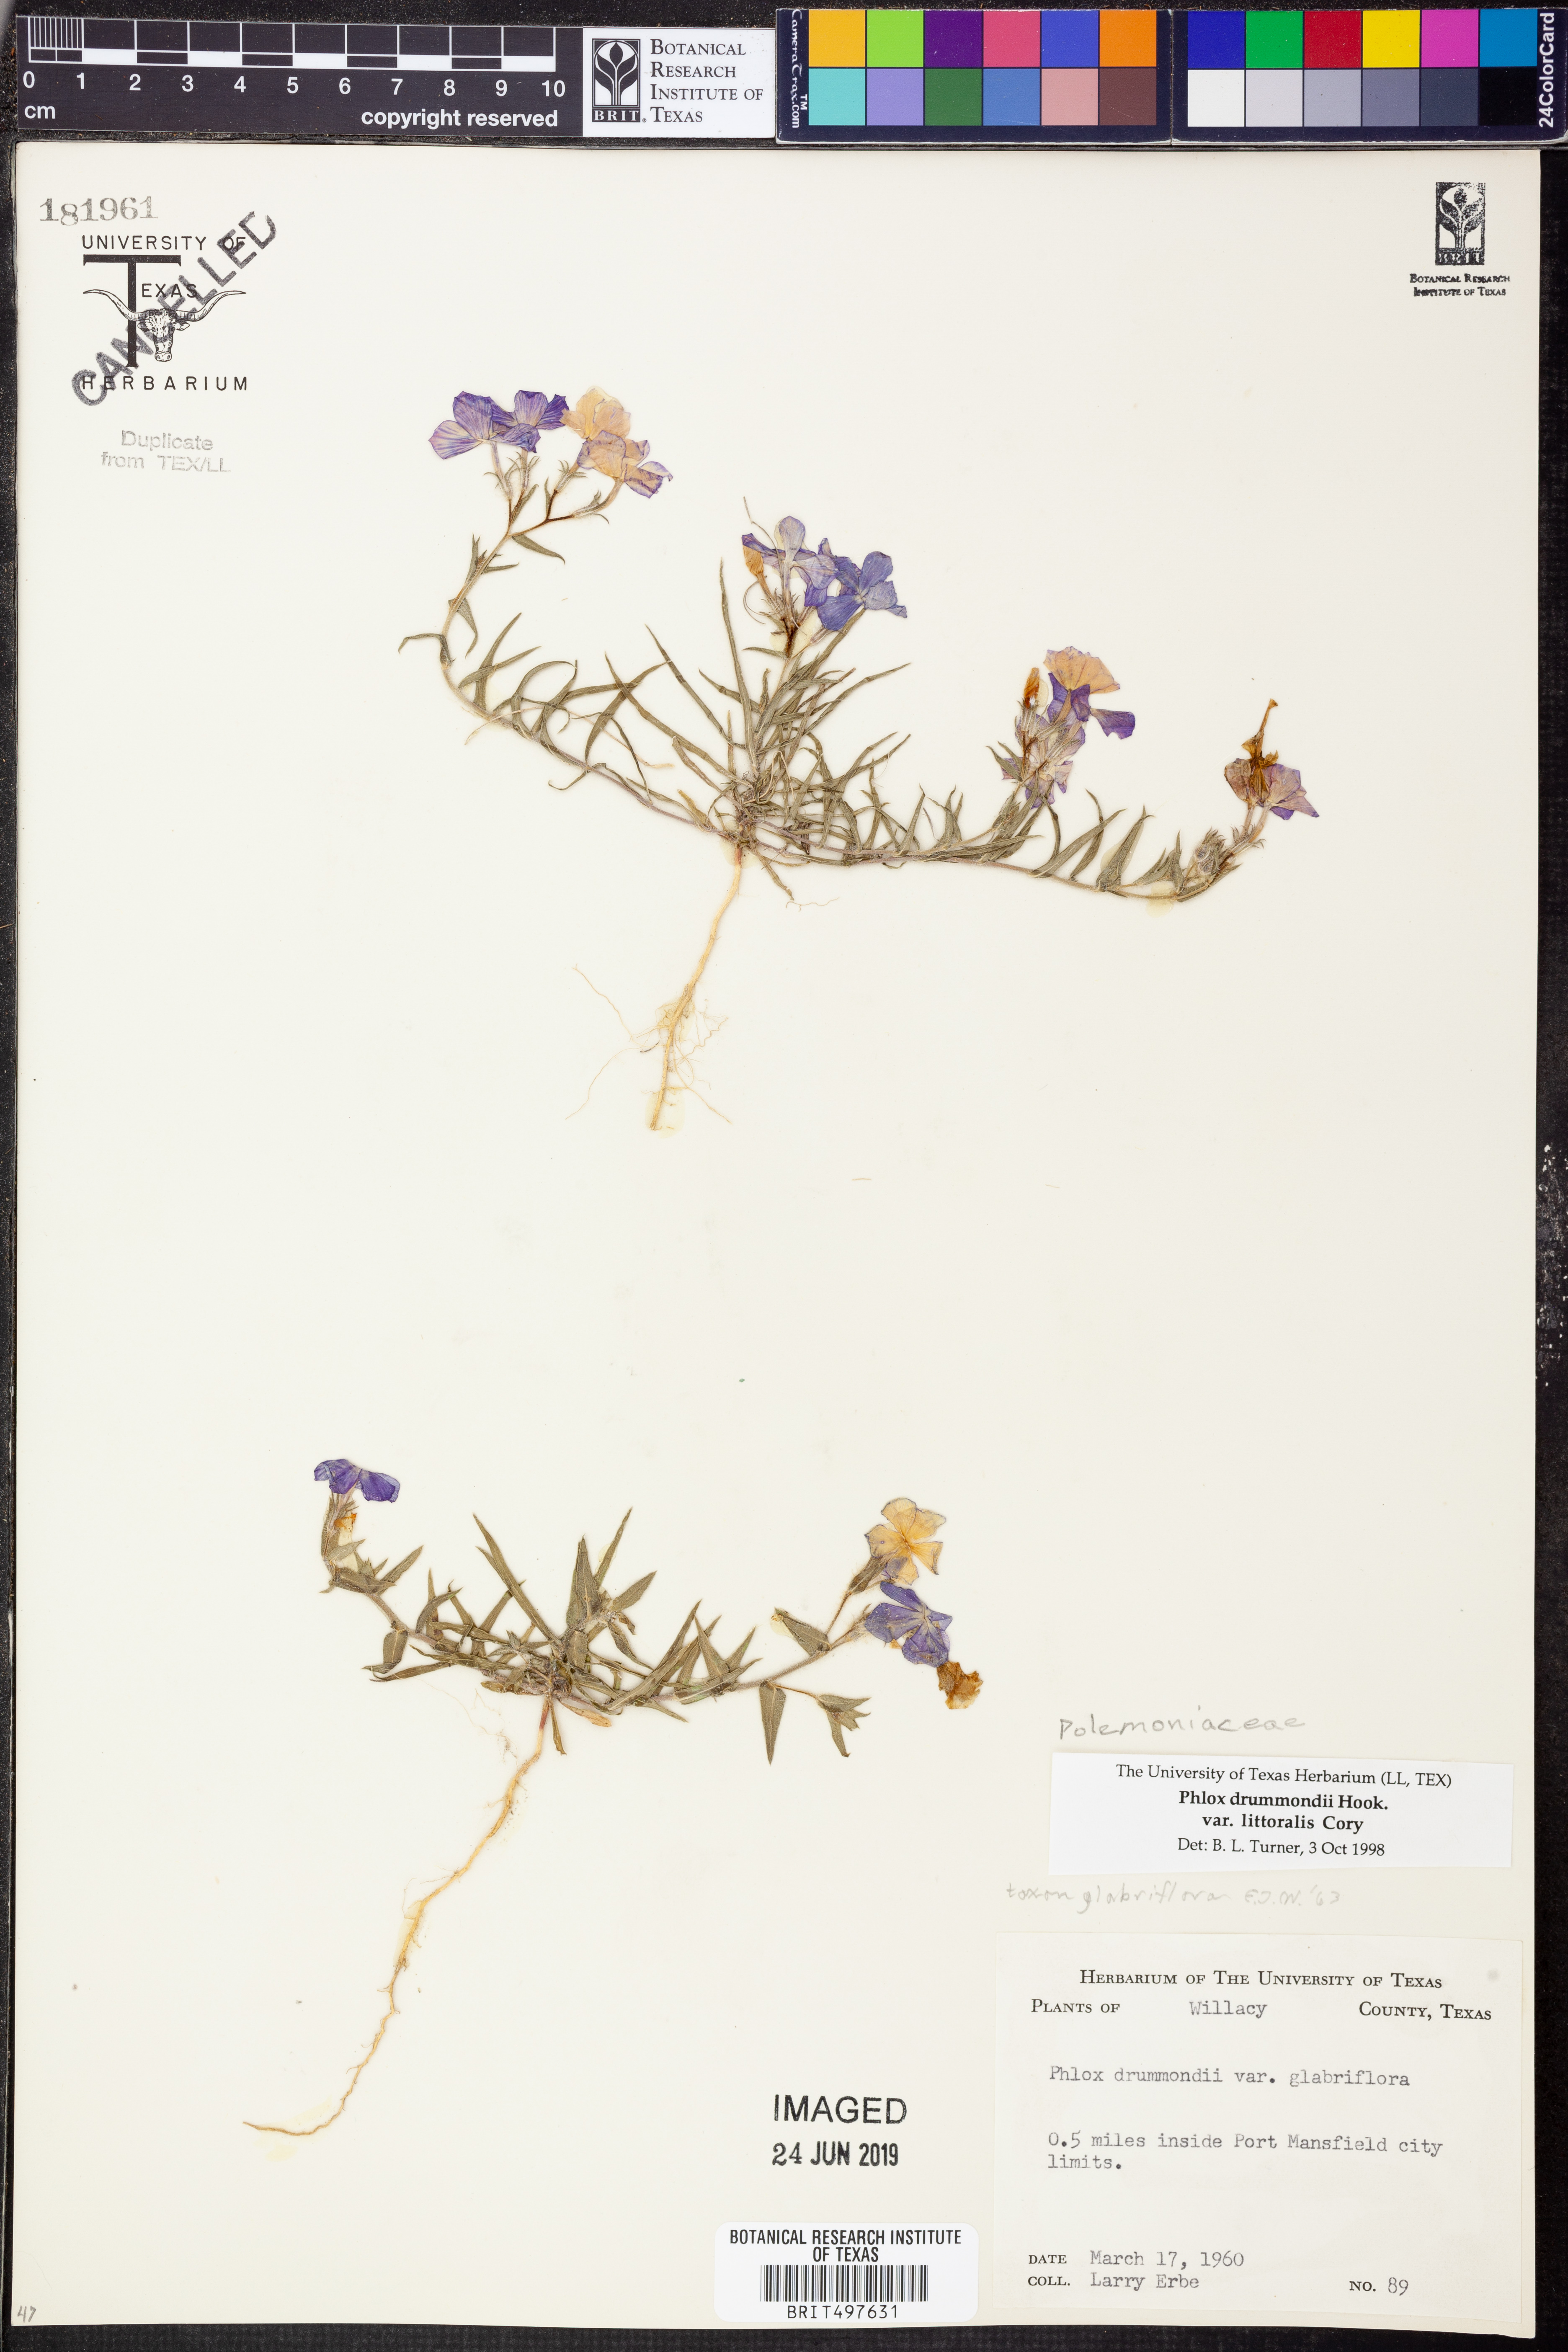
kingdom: Plantae
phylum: Tracheophyta
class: Magnoliopsida
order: Ericales
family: Polemoniaceae
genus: Phlox
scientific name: Phlox glabriflora
